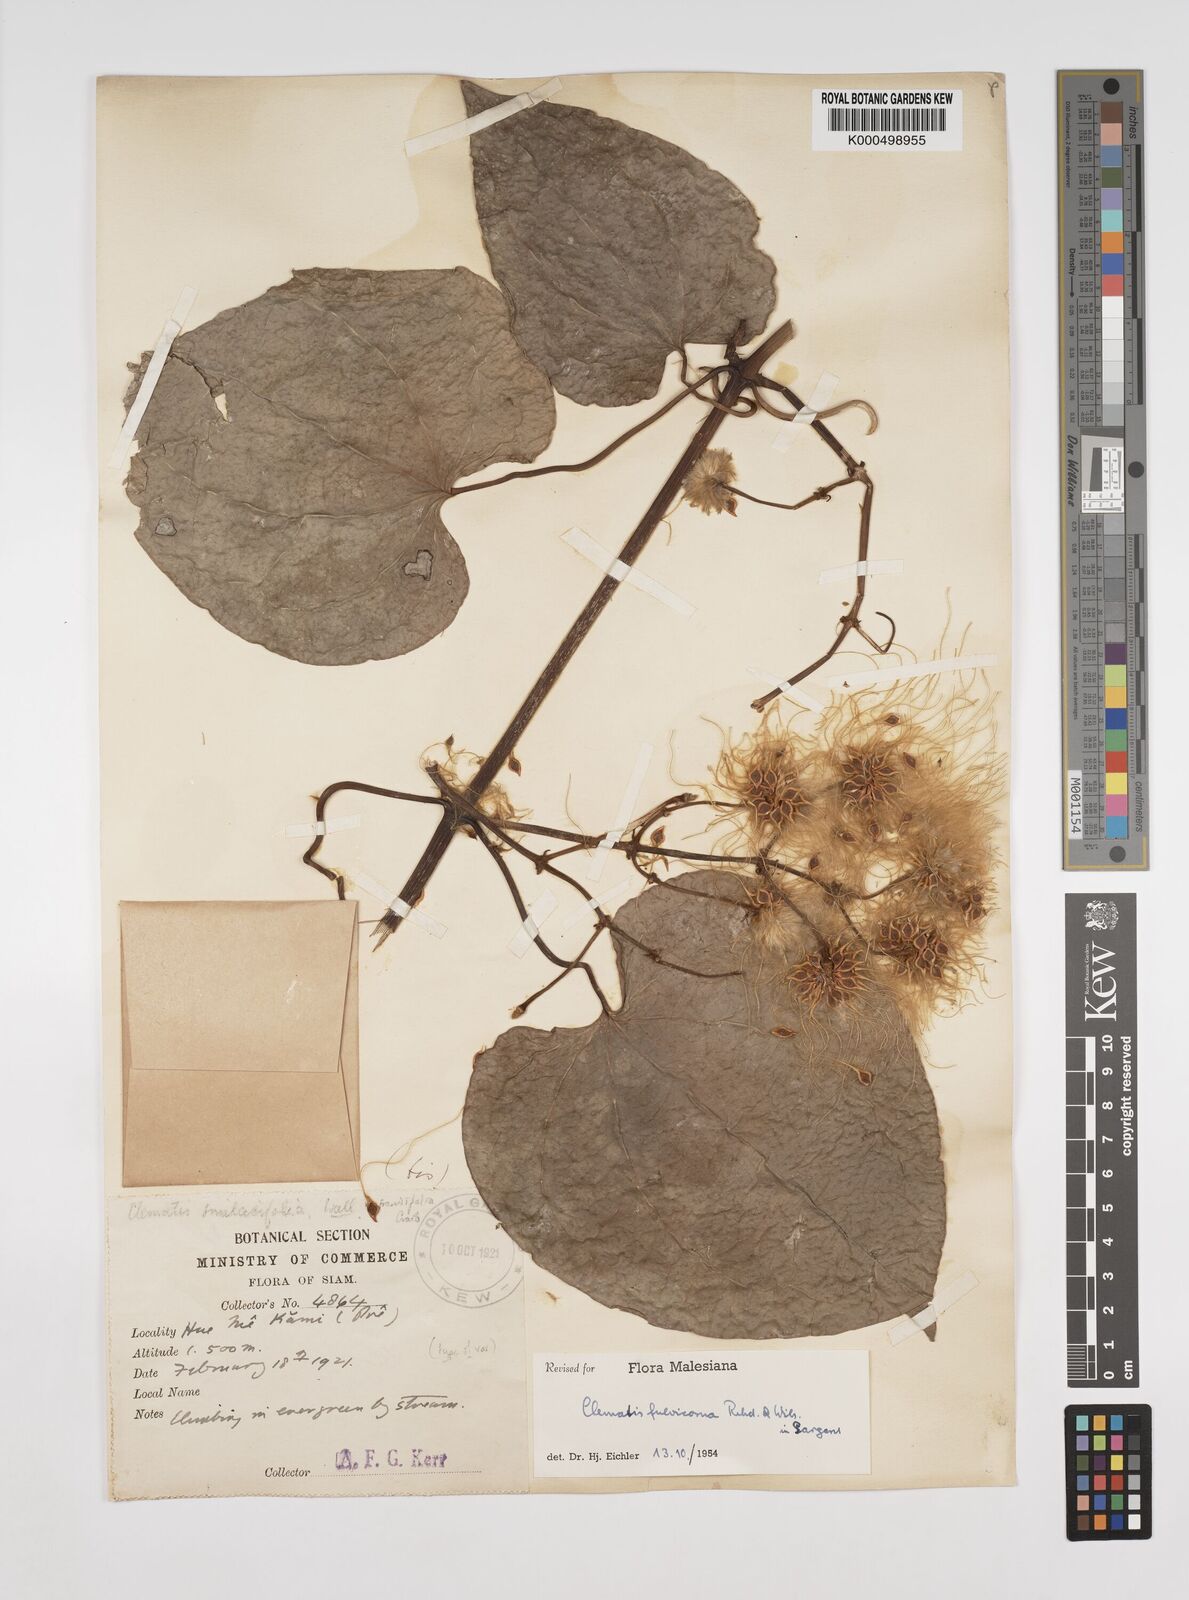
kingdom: Plantae
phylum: Tracheophyta
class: Magnoliopsida
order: Ranunculales
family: Ranunculaceae
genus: Clematis
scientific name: Clematis fulvicoma
